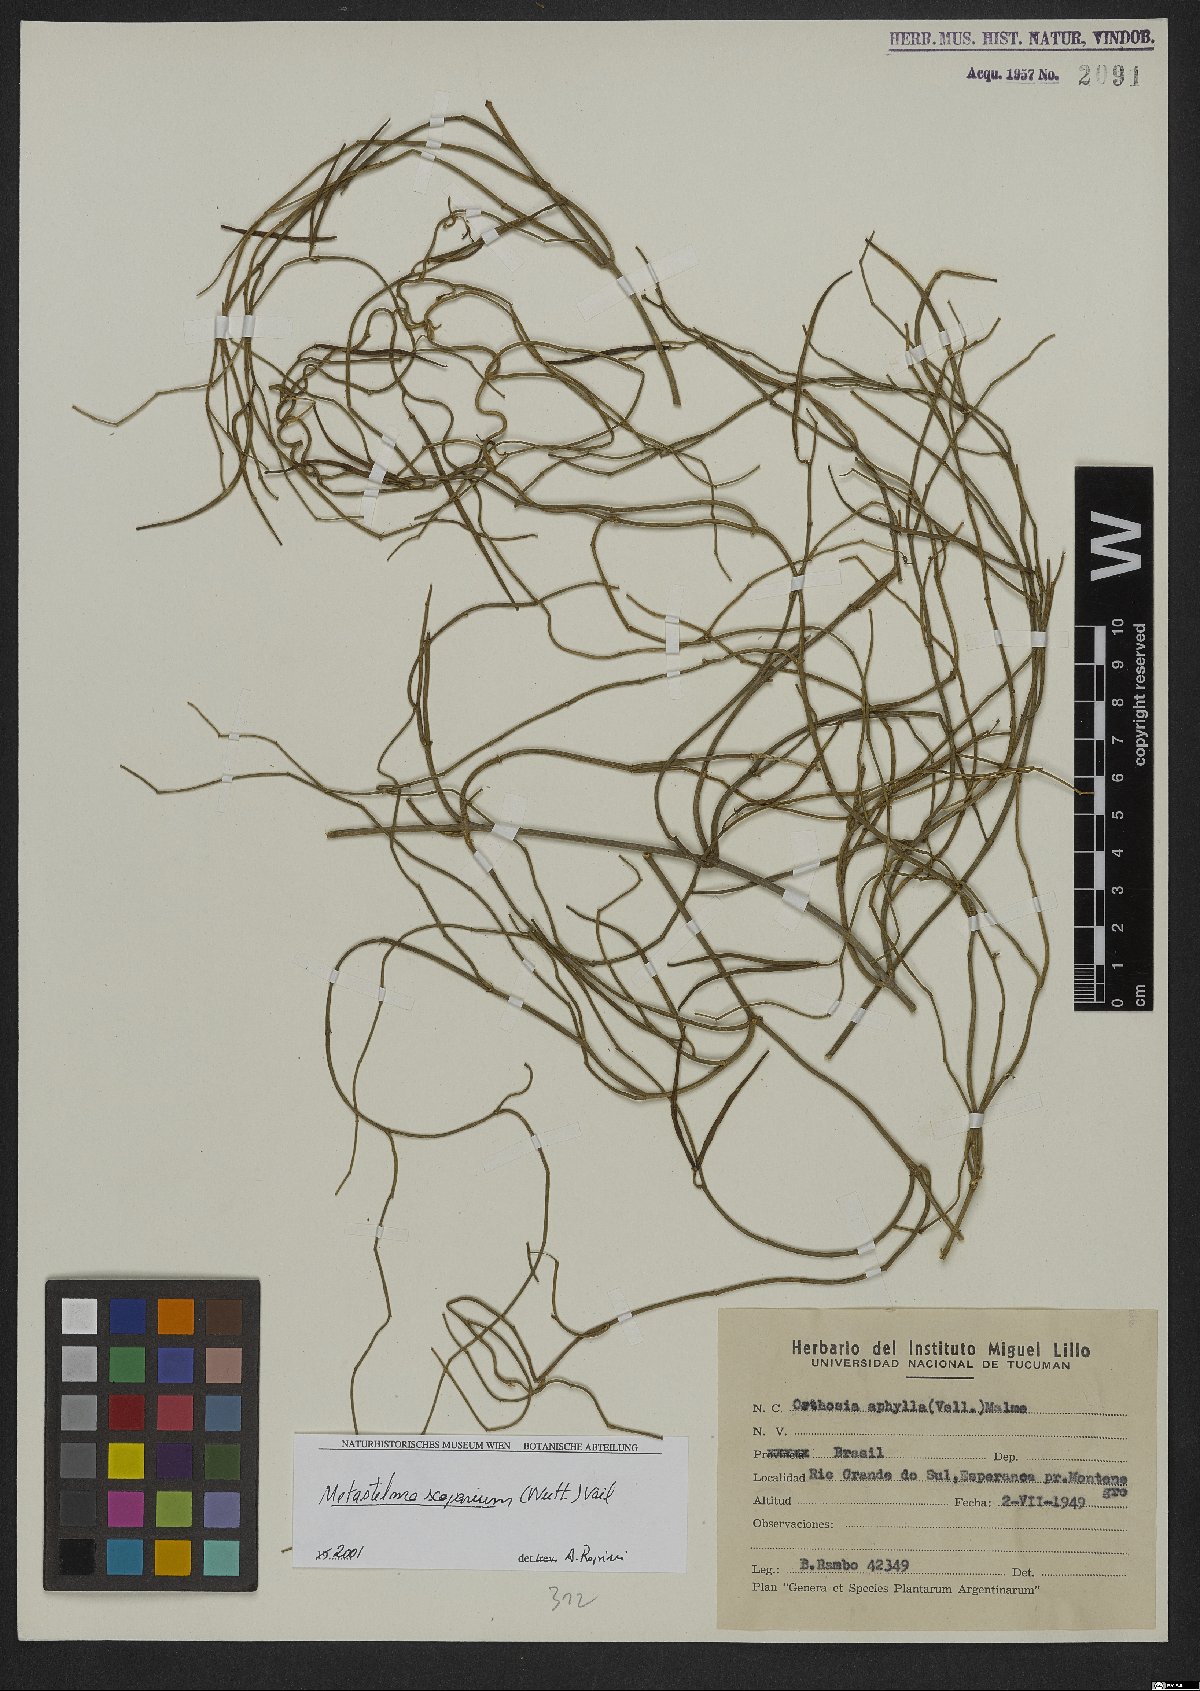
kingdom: Plantae
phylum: Tracheophyta
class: Magnoliopsida
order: Gentianales
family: Apocynaceae
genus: Orthosia
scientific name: Orthosia scoparia
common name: Leafless swallow-wort
